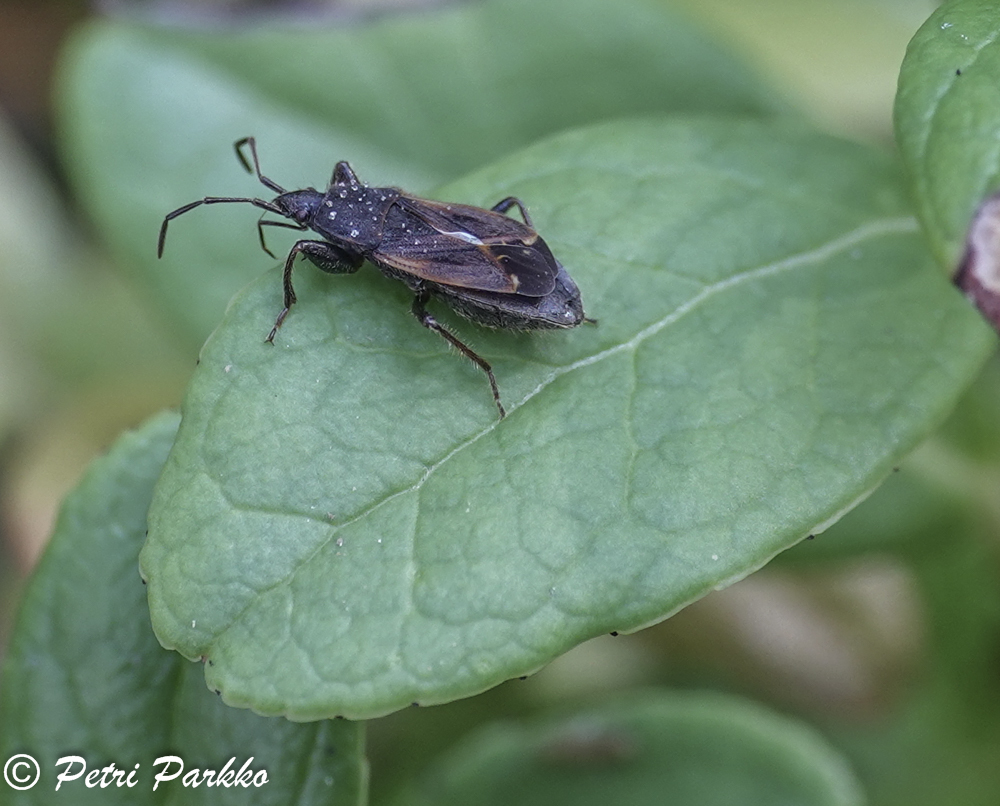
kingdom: Animalia
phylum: Arthropoda
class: Insecta
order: Hemiptera
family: Rhyparochromidae
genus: Eremocoris
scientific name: Eremocoris plebejus
